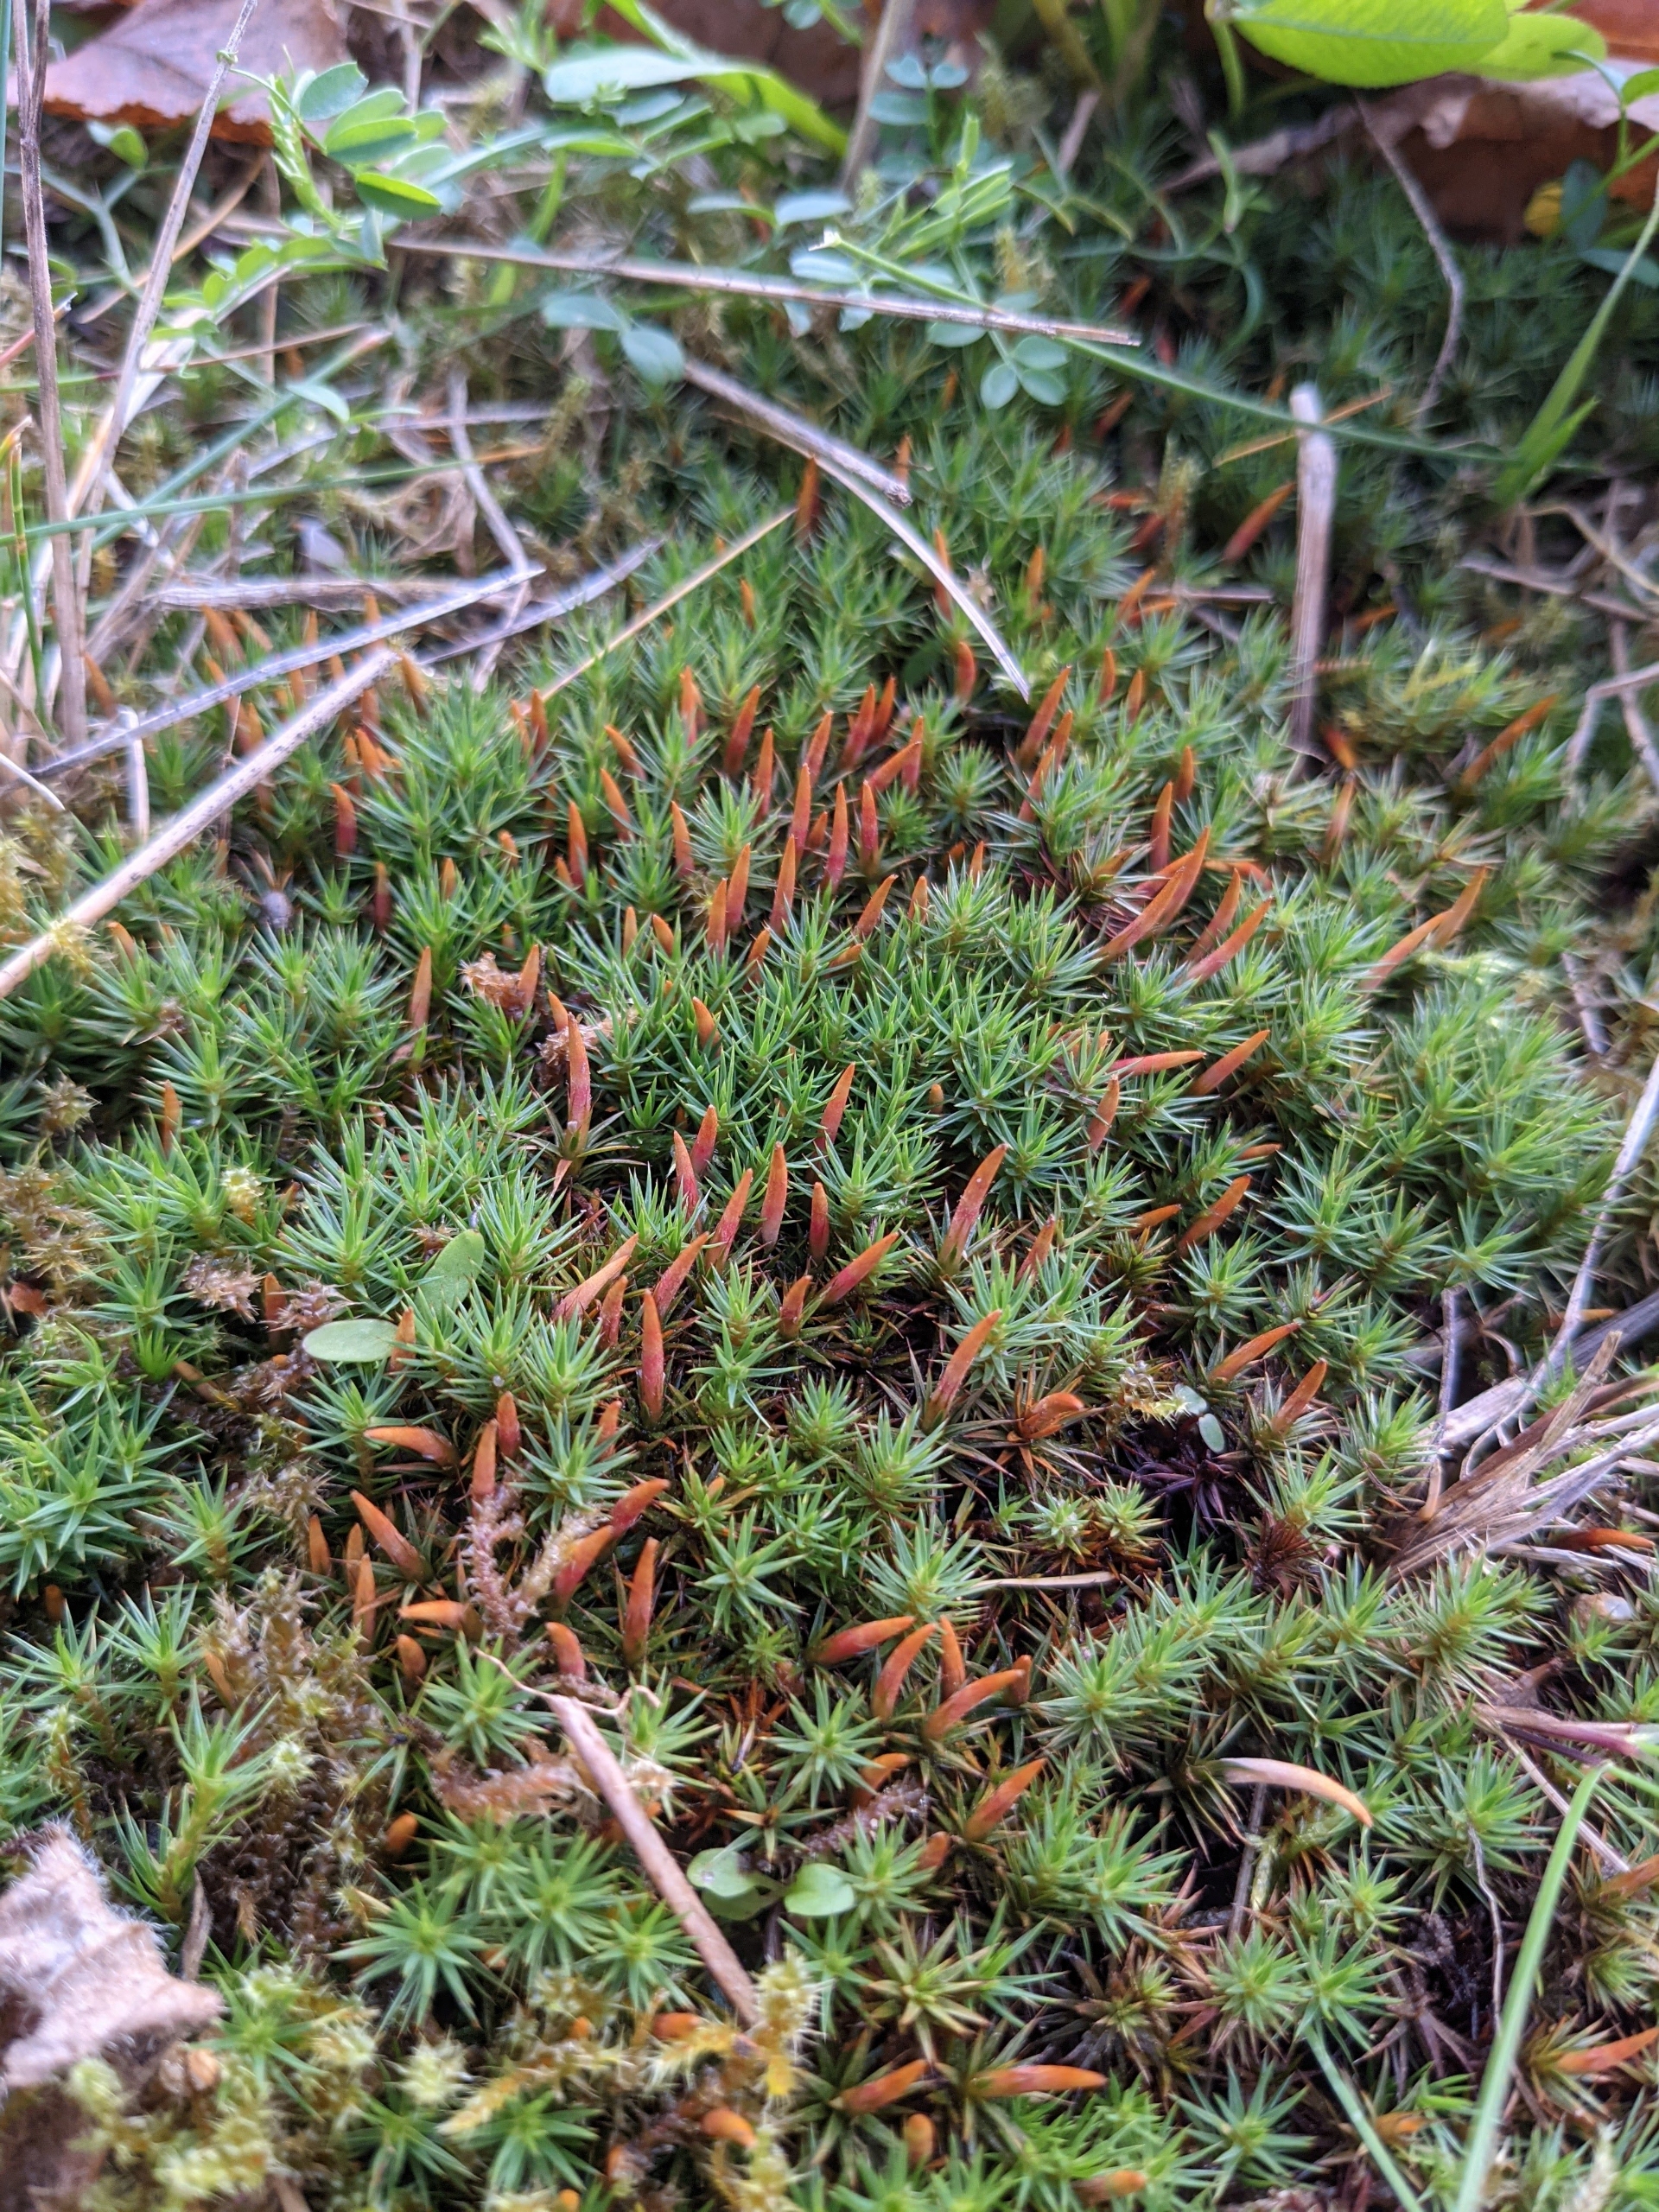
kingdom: Plantae
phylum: Bryophyta
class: Polytrichopsida
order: Polytrichales
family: Polytrichaceae
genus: Polytrichum
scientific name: Polytrichum juniperinum
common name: Ene-jomfruhår
